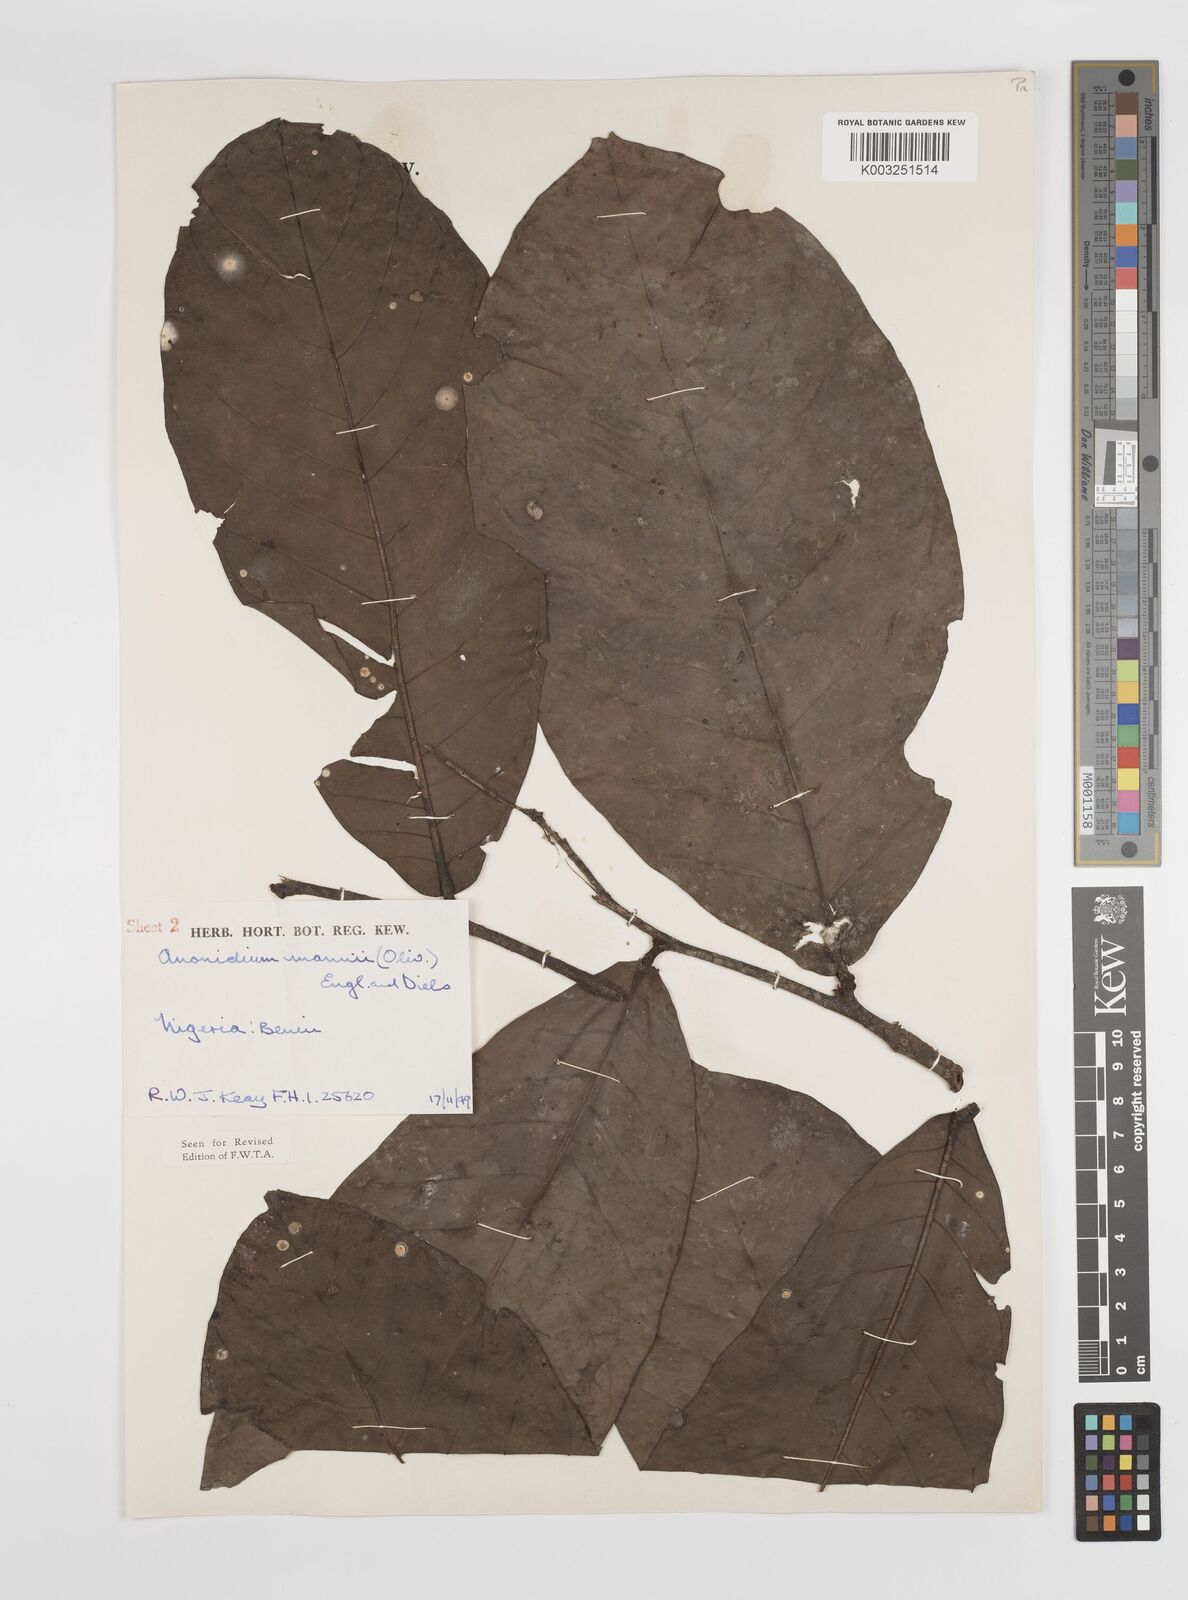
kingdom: Plantae
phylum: Tracheophyta
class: Magnoliopsida
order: Magnoliales
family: Annonaceae
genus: Anonidium
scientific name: Anonidium mannii
